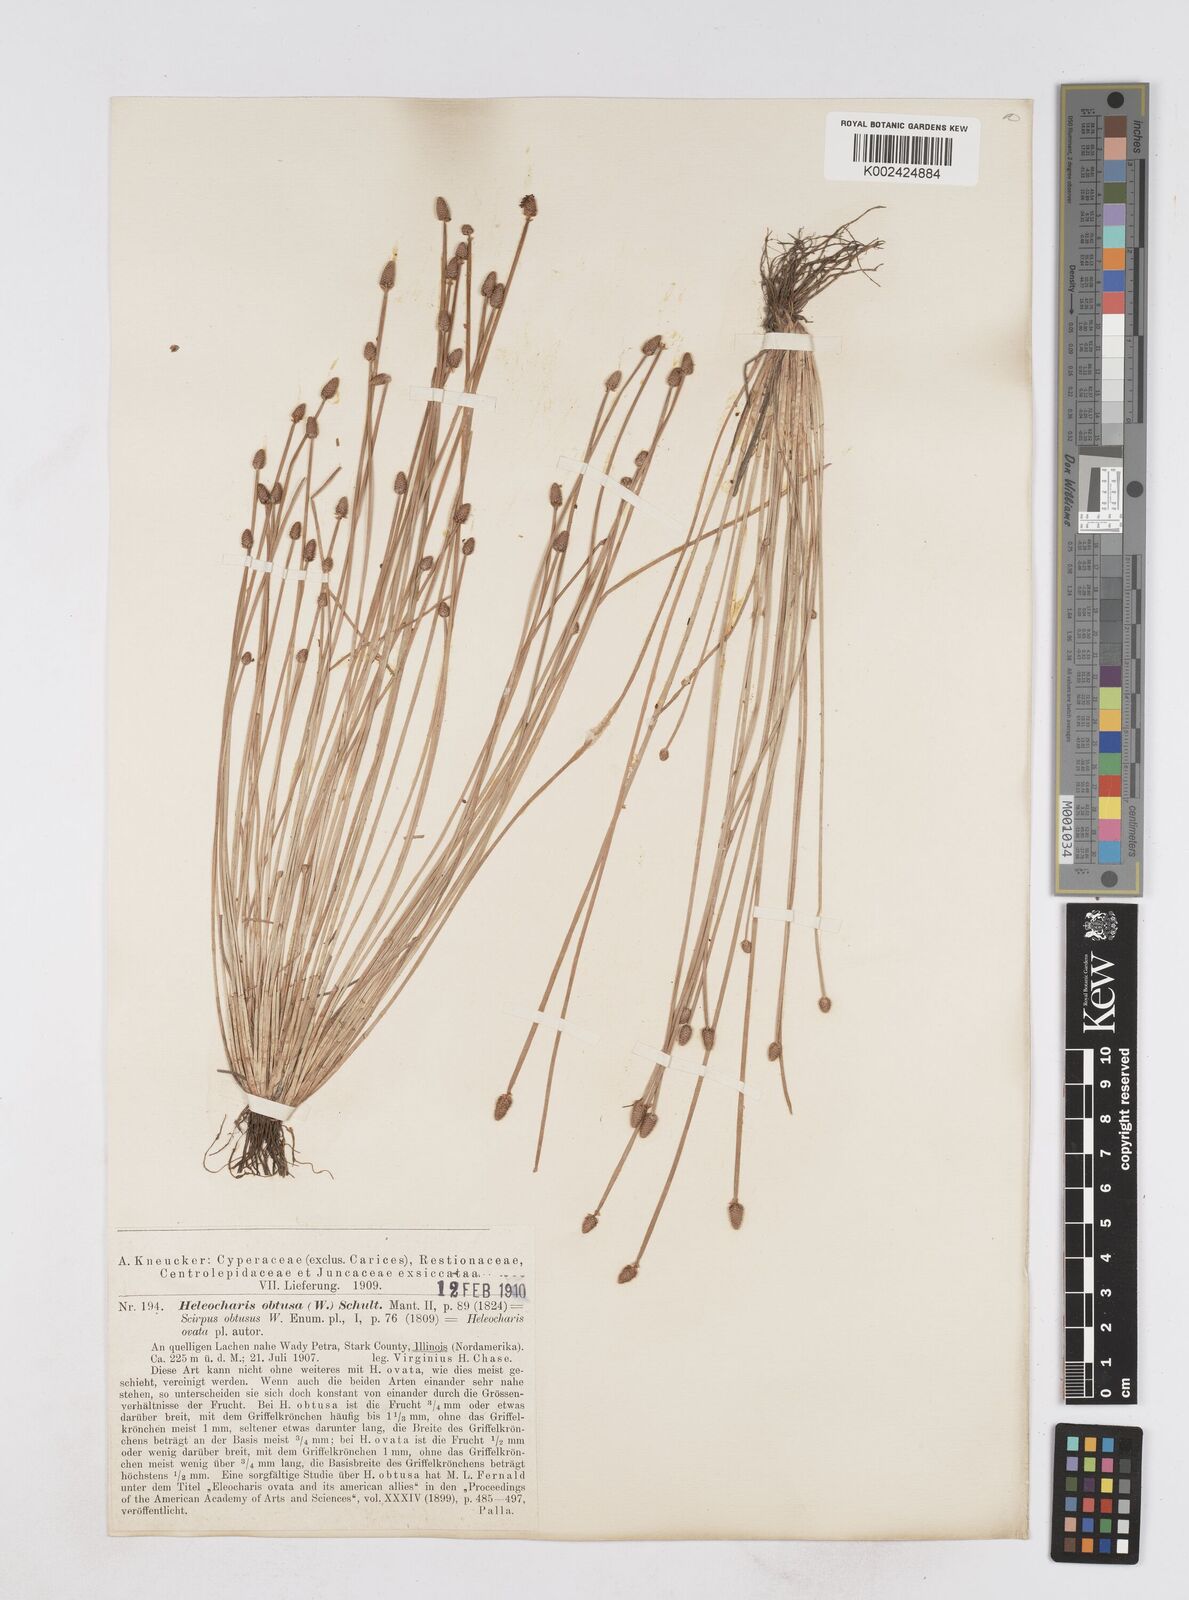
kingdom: Plantae
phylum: Tracheophyta
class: Liliopsida
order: Poales
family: Cyperaceae
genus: Eleocharis
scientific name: Eleocharis obtusa
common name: Blunt spikerush
